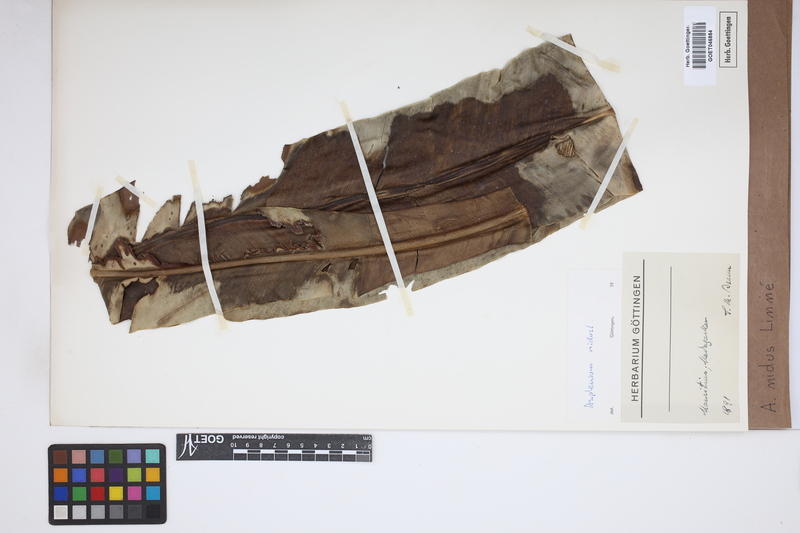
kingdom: Plantae
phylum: Tracheophyta
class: Polypodiopsida
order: Polypodiales
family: Aspleniaceae
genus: Asplenium
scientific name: Asplenium nidus
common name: Bird's-nest fern
